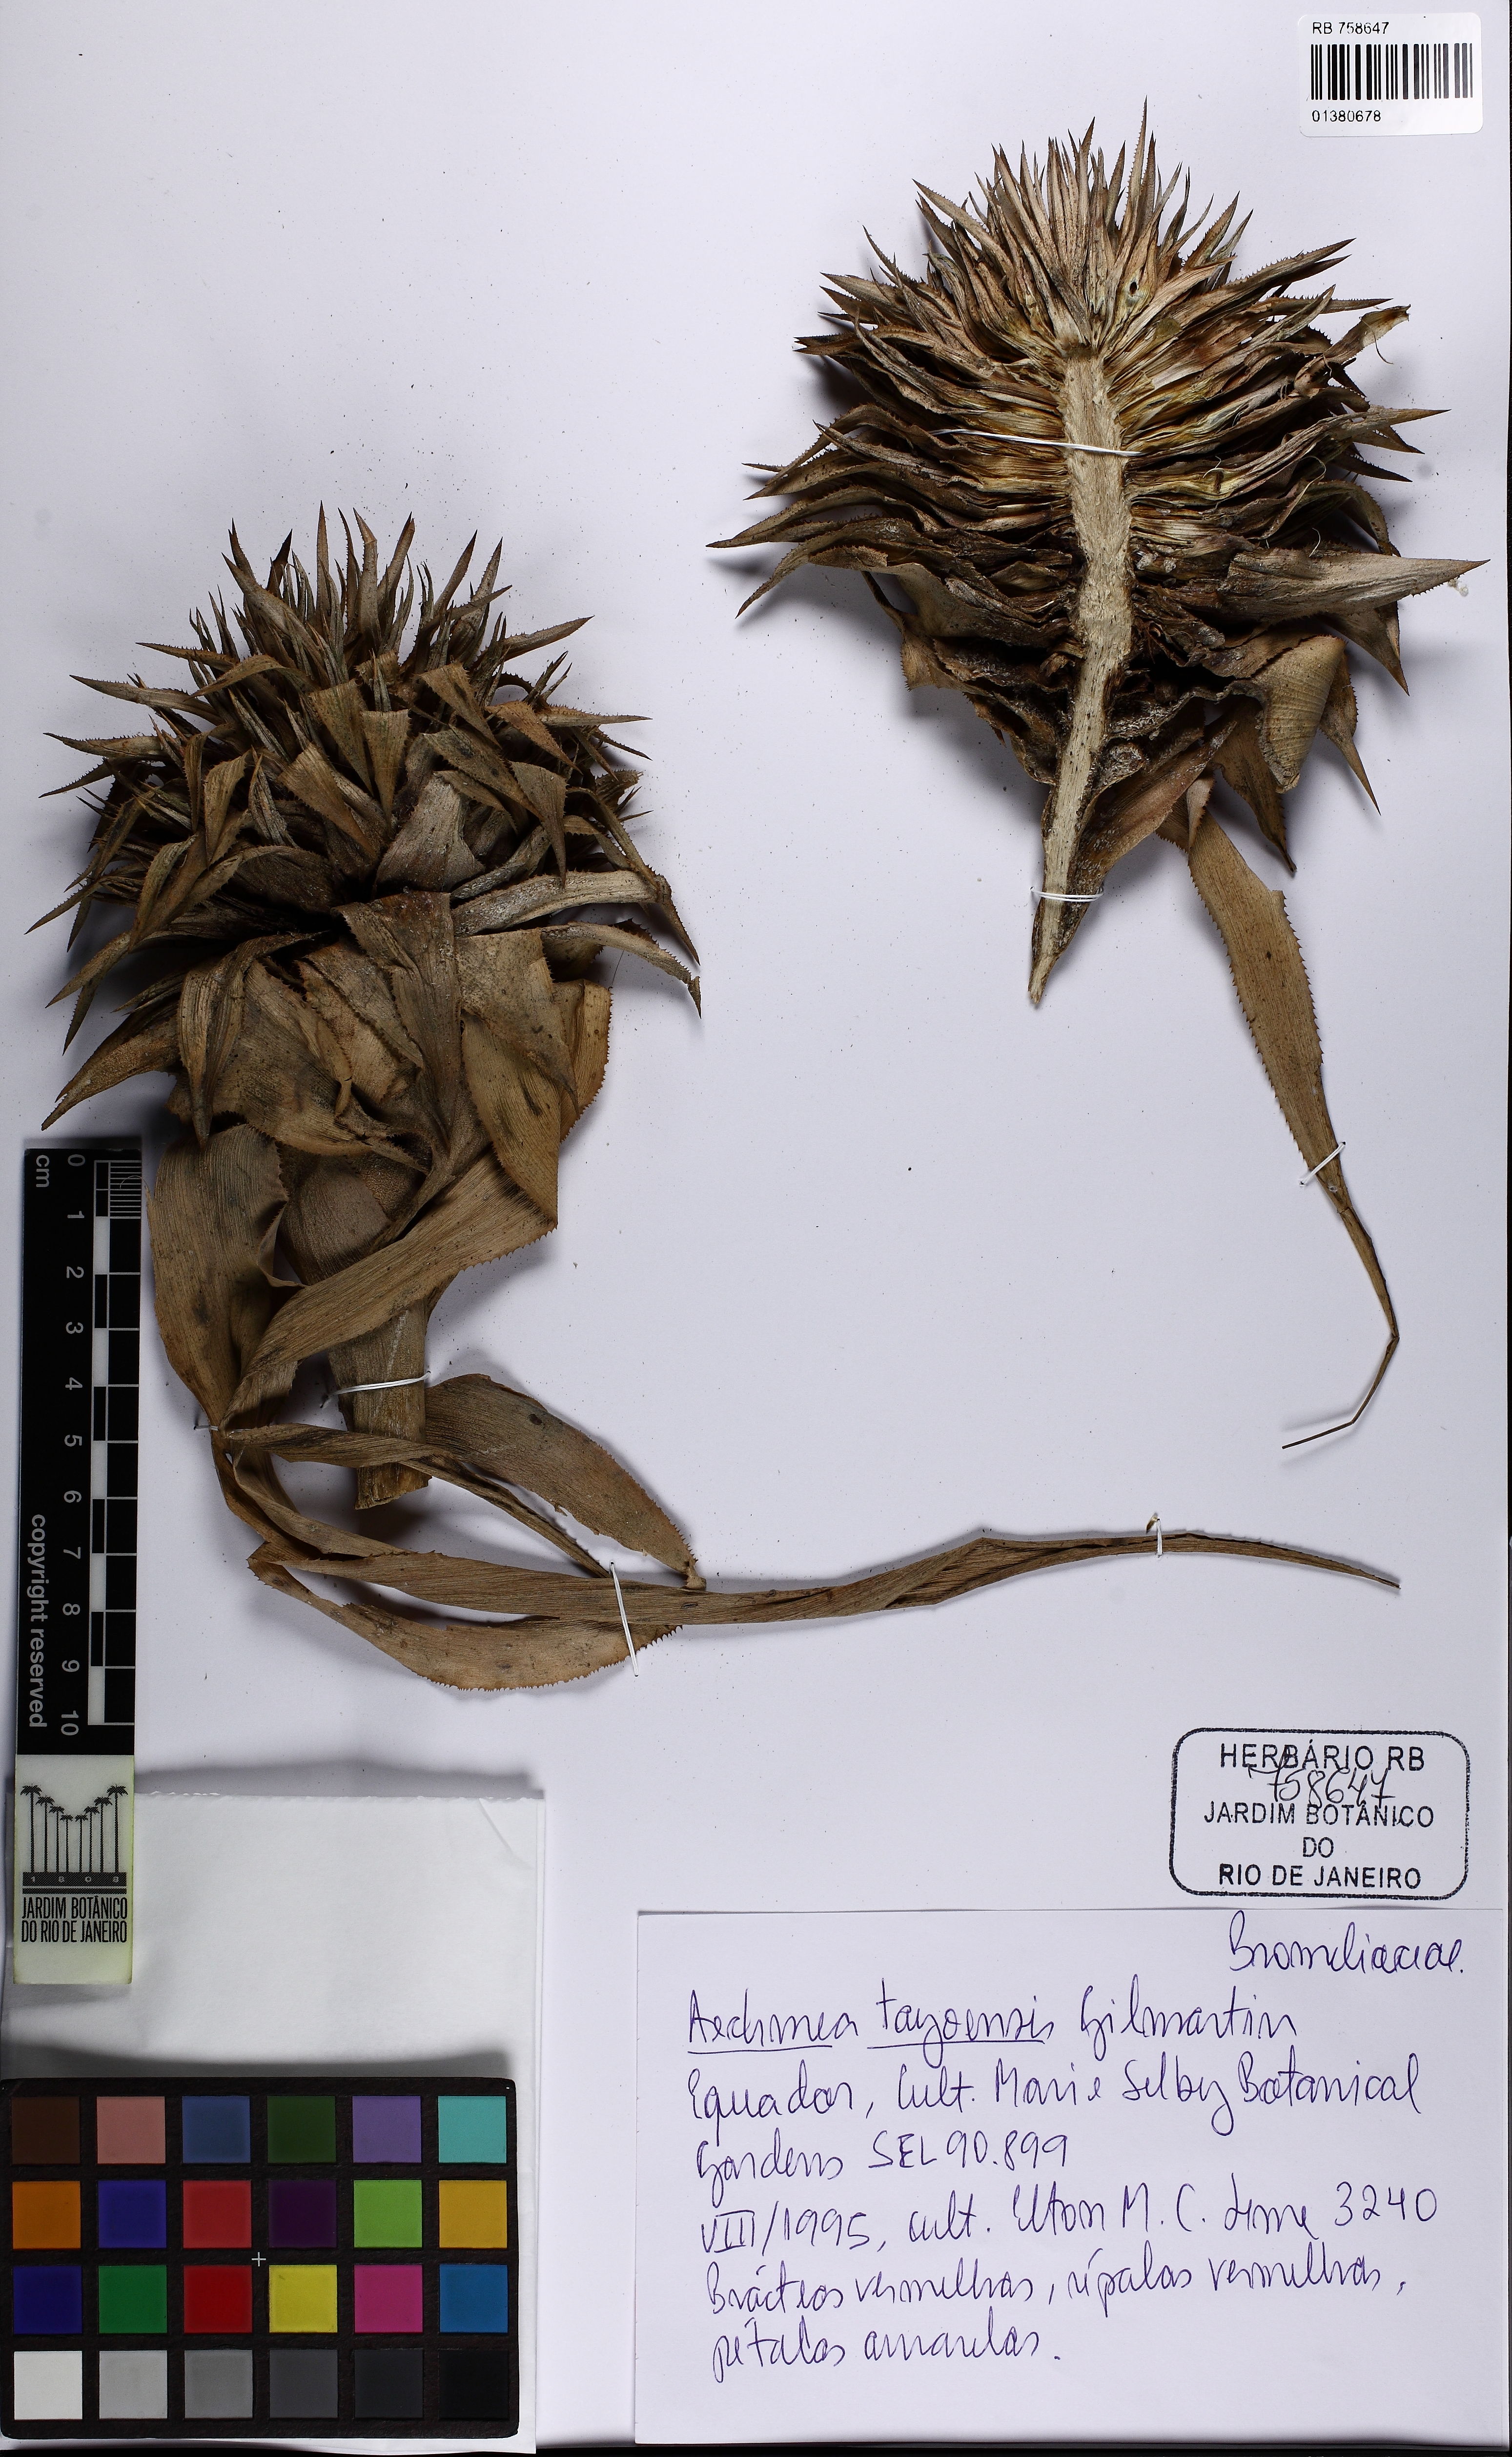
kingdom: Plantae
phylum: Tracheophyta
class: Liliopsida
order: Poales
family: Bromeliaceae
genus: Aechmea
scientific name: Aechmea tayoensis
